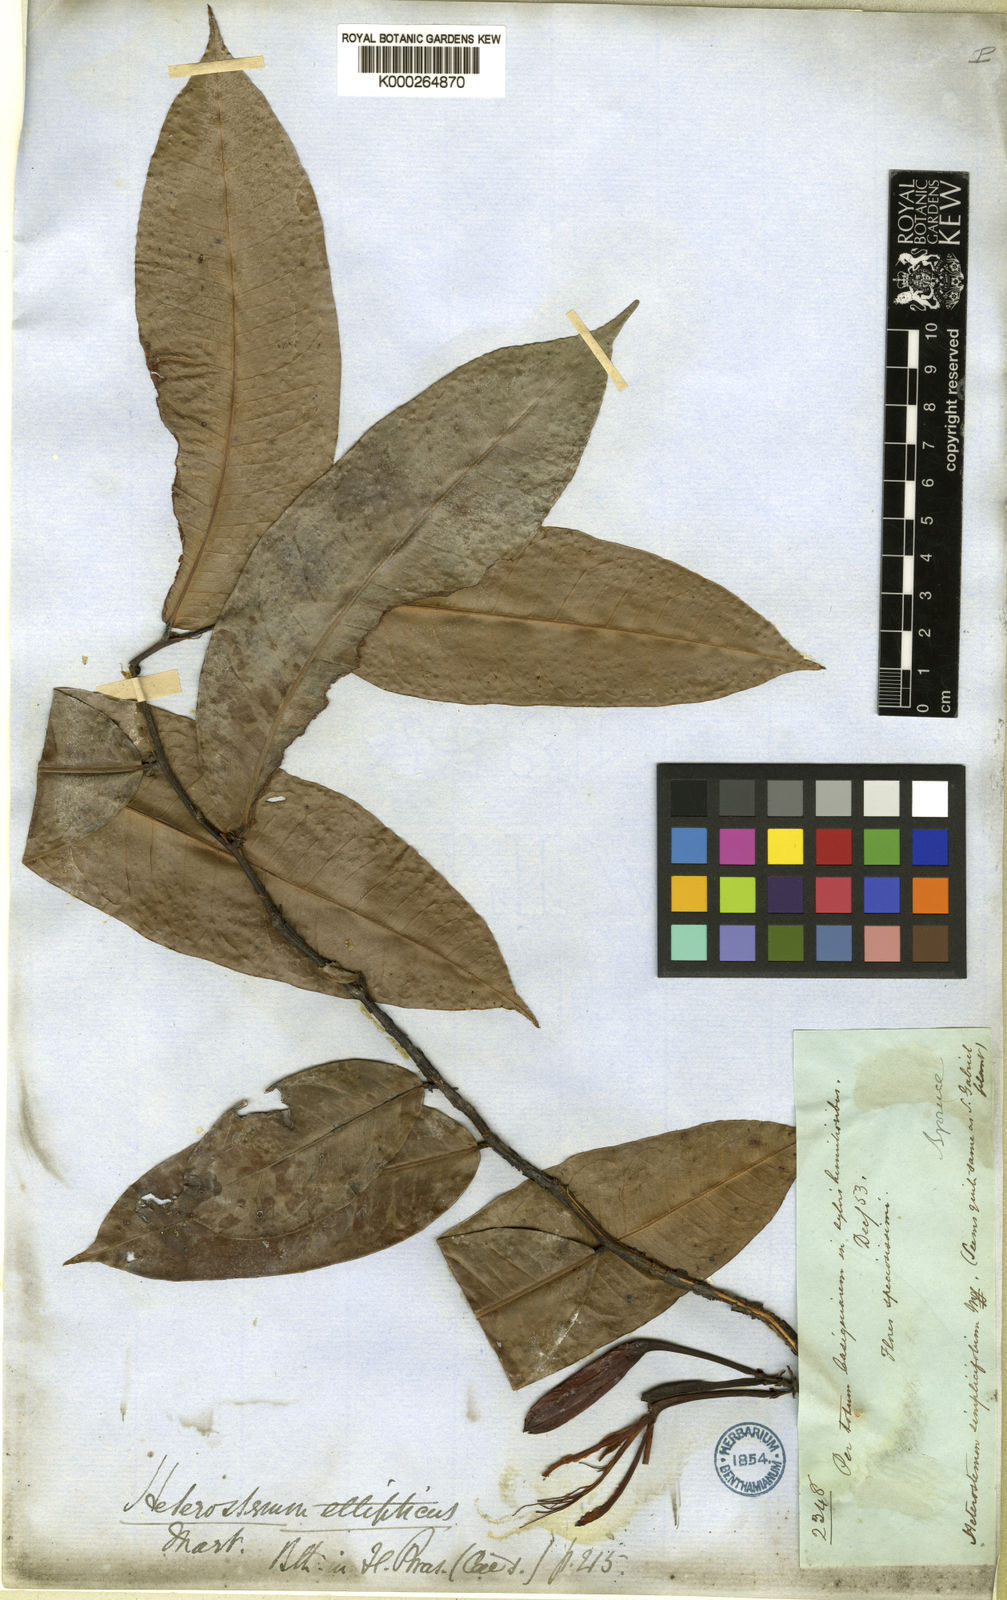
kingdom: Plantae
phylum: Tracheophyta
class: Magnoliopsida
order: Fabales
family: Fabaceae
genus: Heterostemon
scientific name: Heterostemon ellipticus
